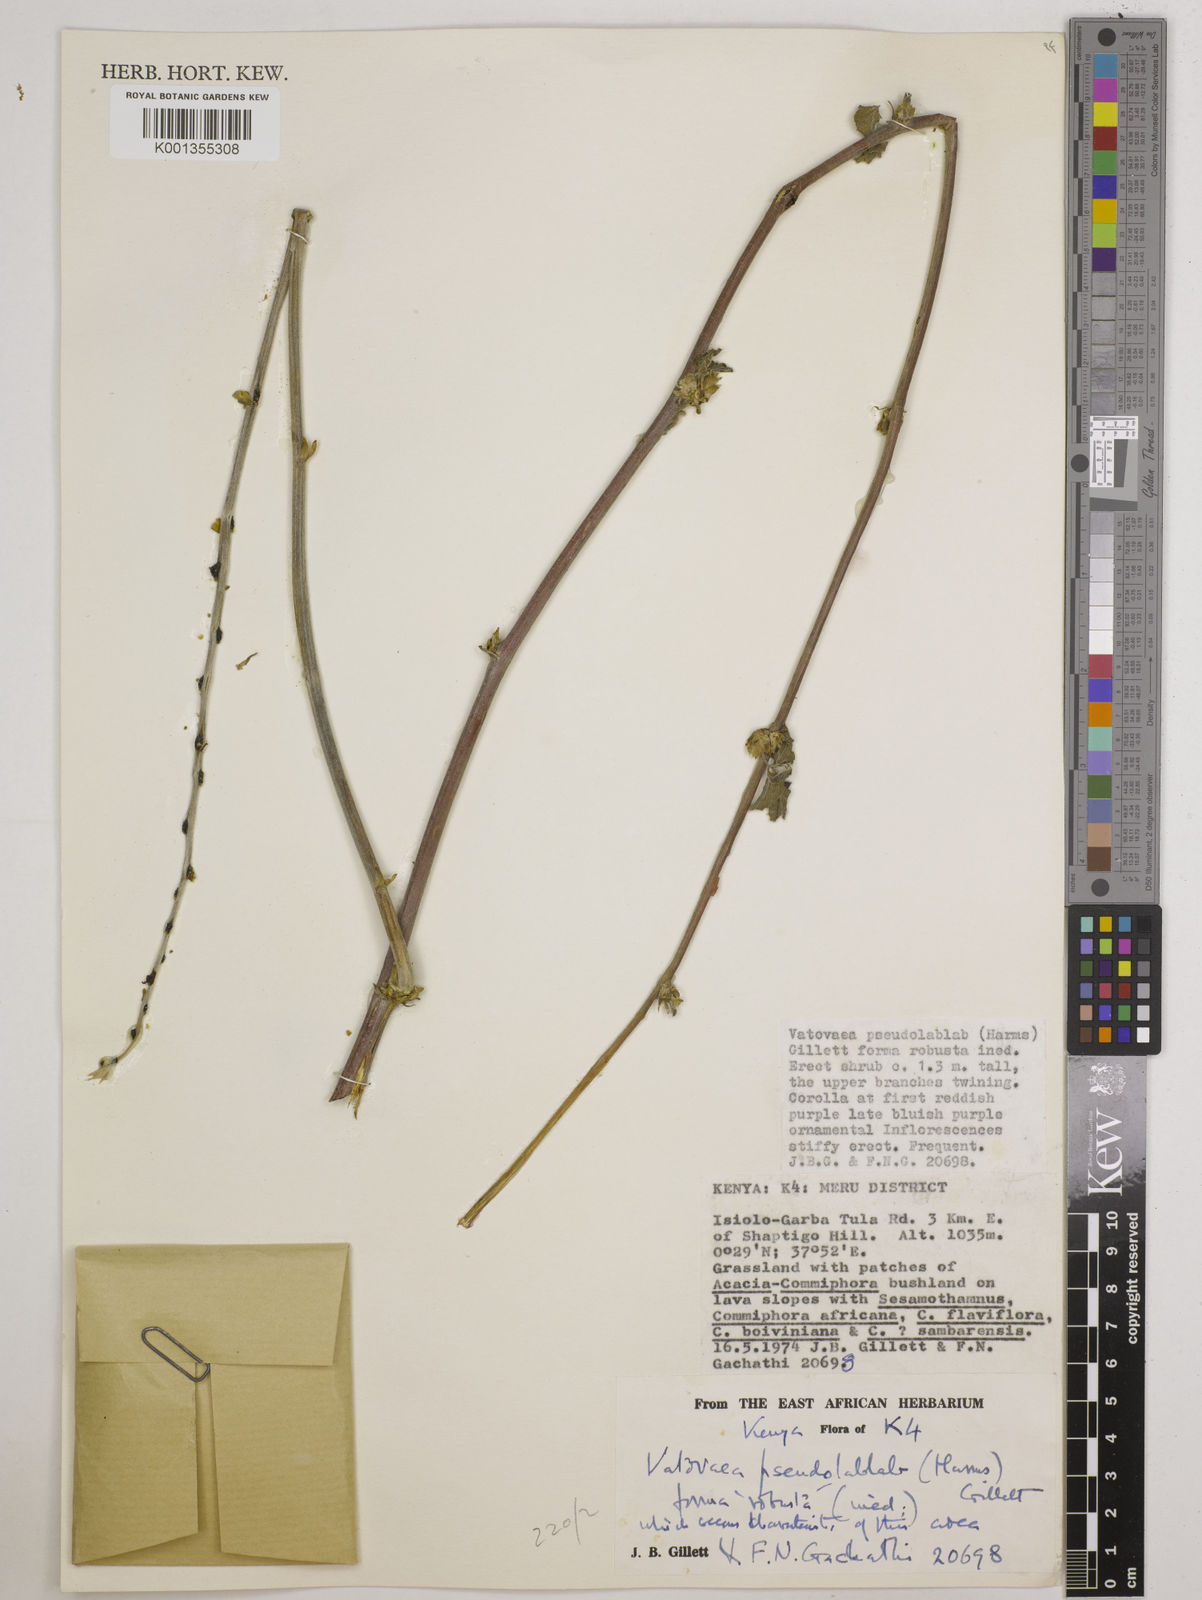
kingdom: Plantae
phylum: Tracheophyta
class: Magnoliopsida
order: Fabales
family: Fabaceae
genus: Vatovaea
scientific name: Vatovaea
